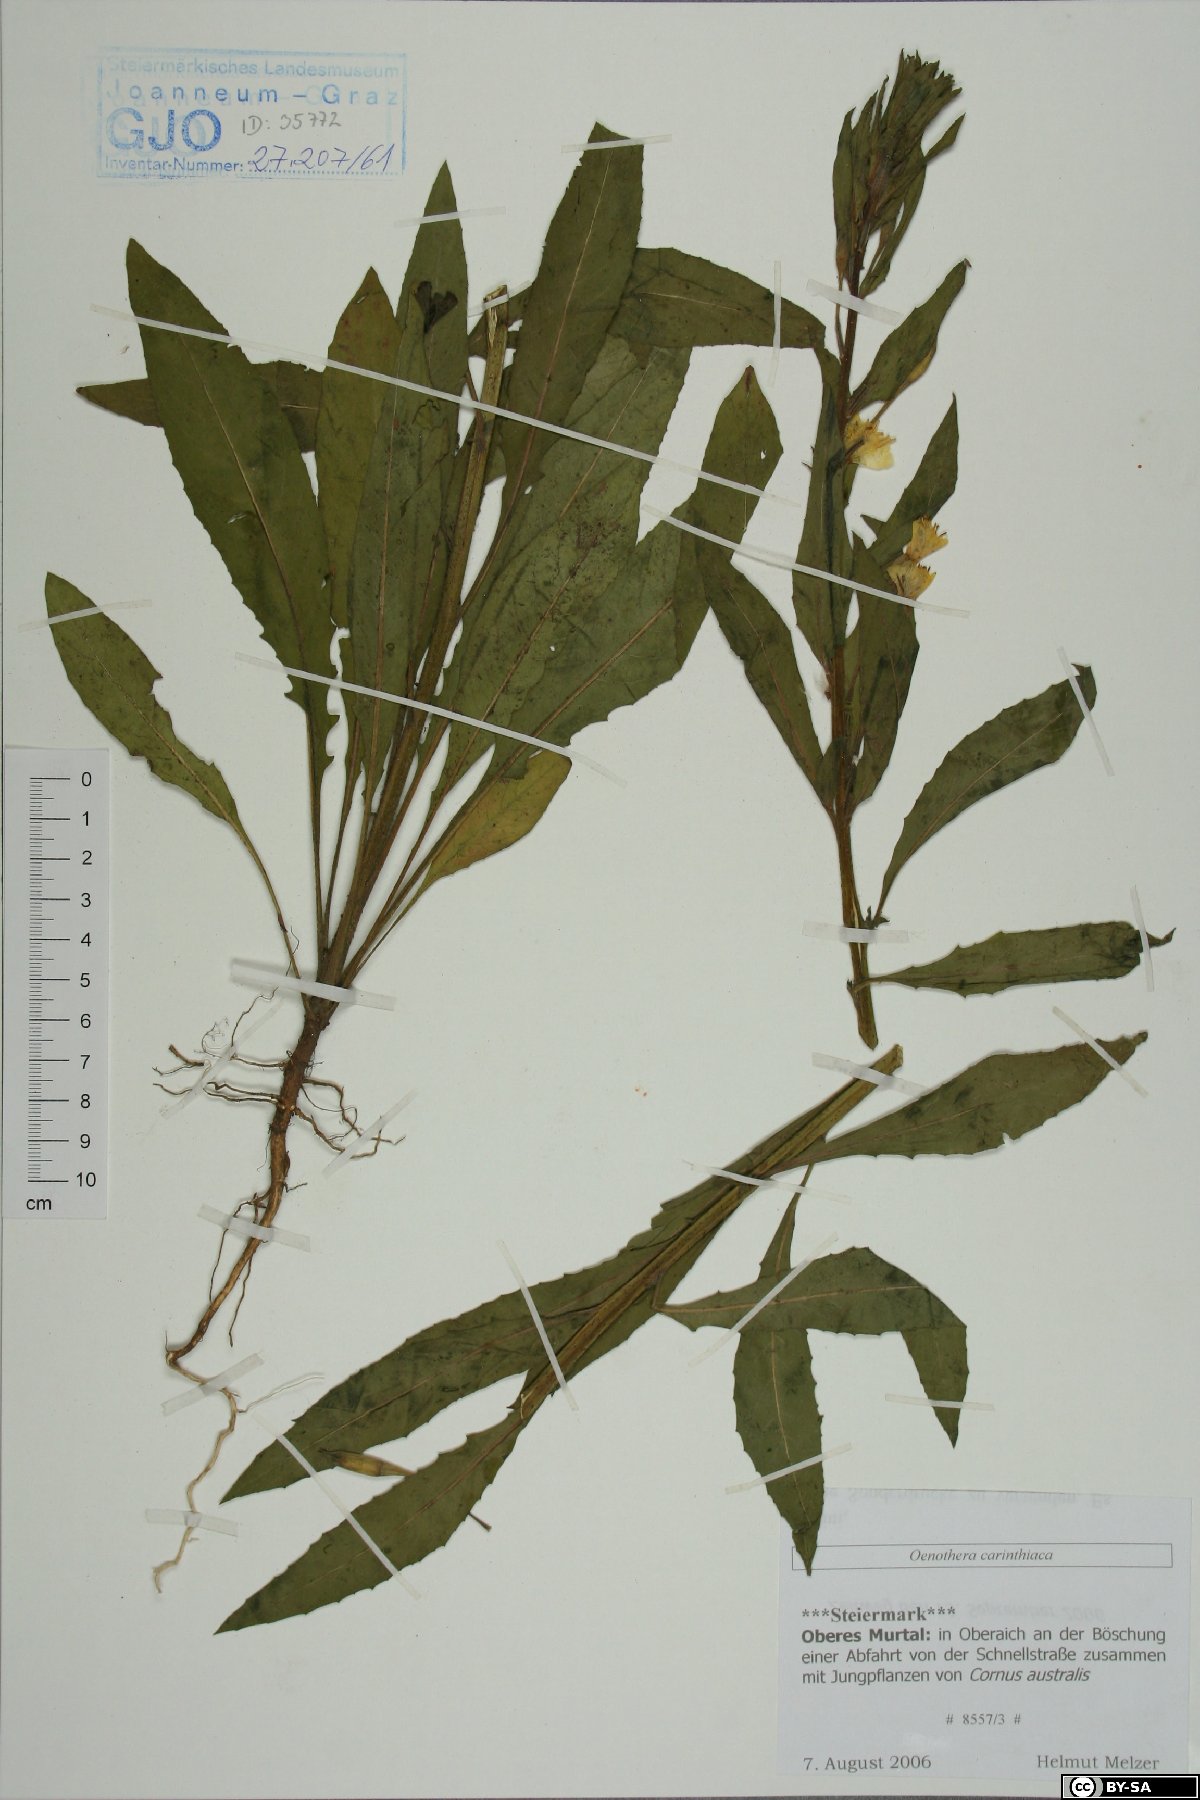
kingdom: Plantae
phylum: Tracheophyta
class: Magnoliopsida
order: Myrtales
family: Onagraceae
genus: Oenothera
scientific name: Oenothera carinthiaca
